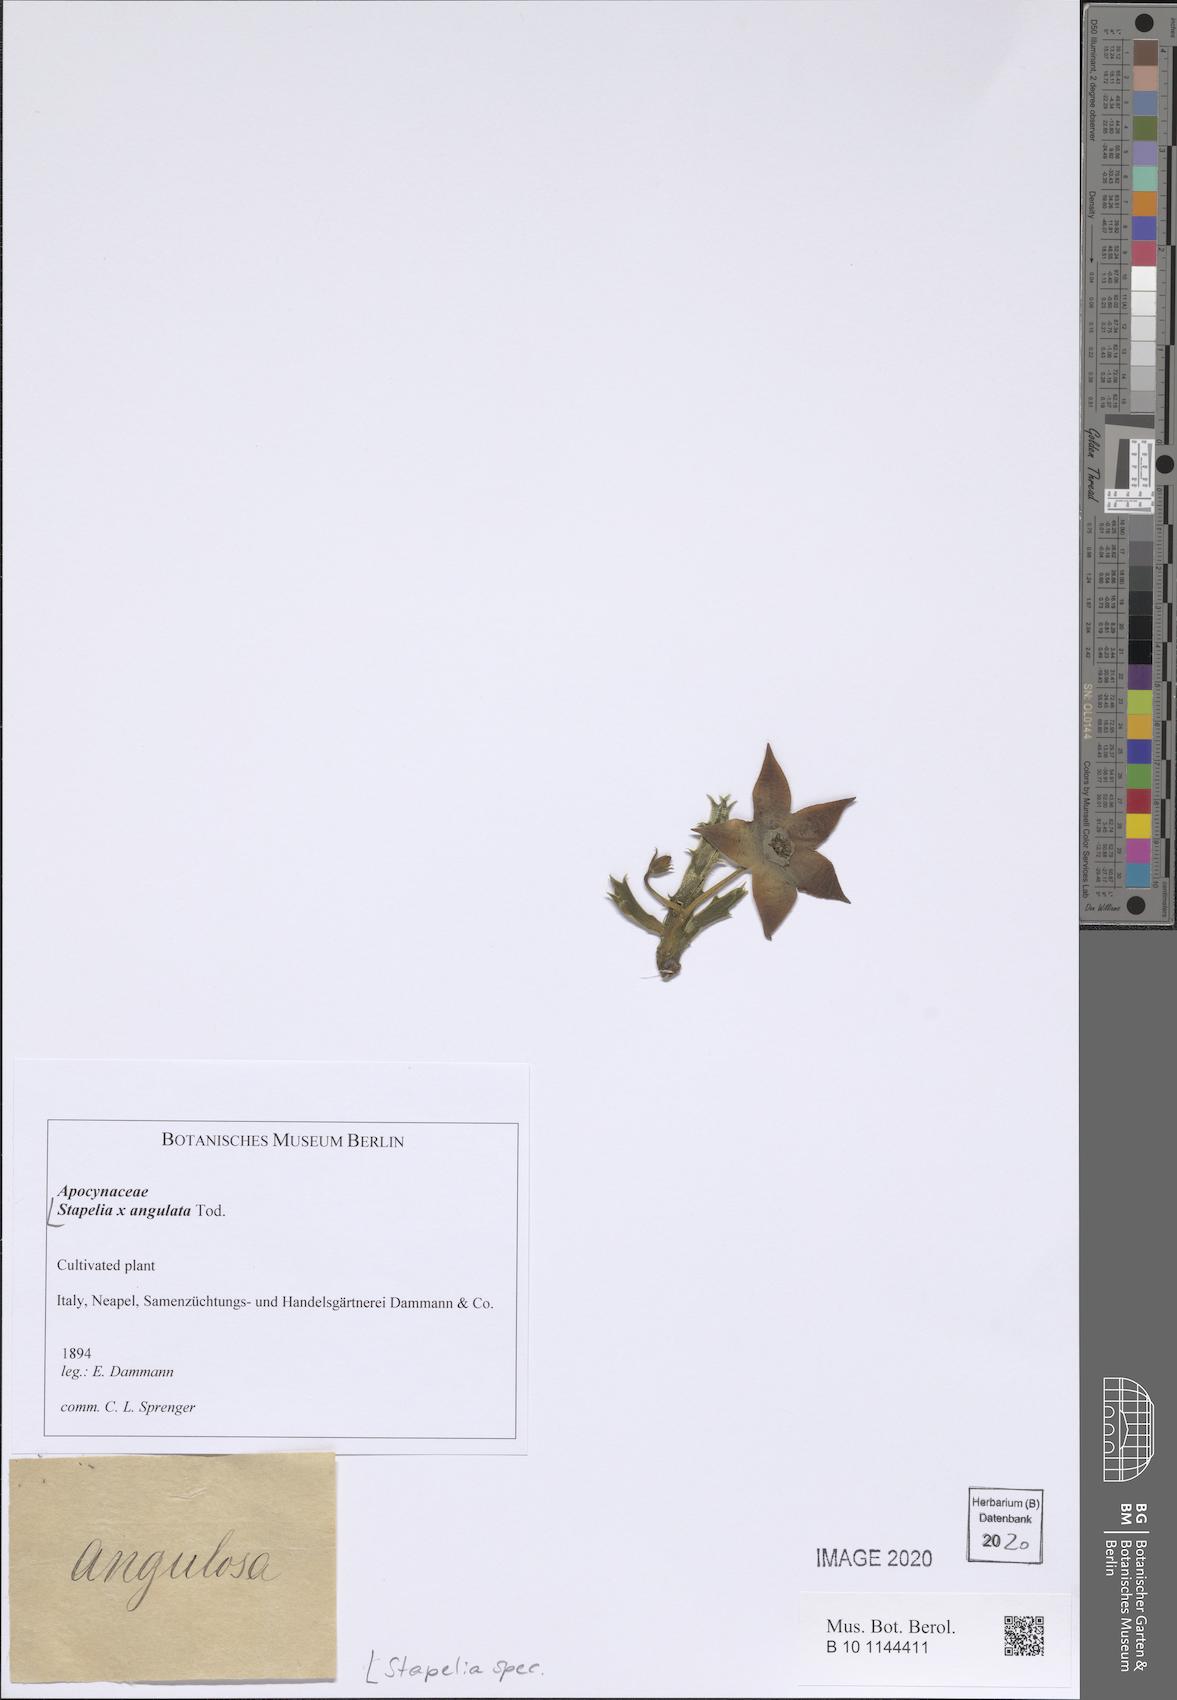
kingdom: Plantae
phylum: Tracheophyta
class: Magnoliopsida
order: Gentianales
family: Apocynaceae
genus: Stapelia
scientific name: Stapelia
